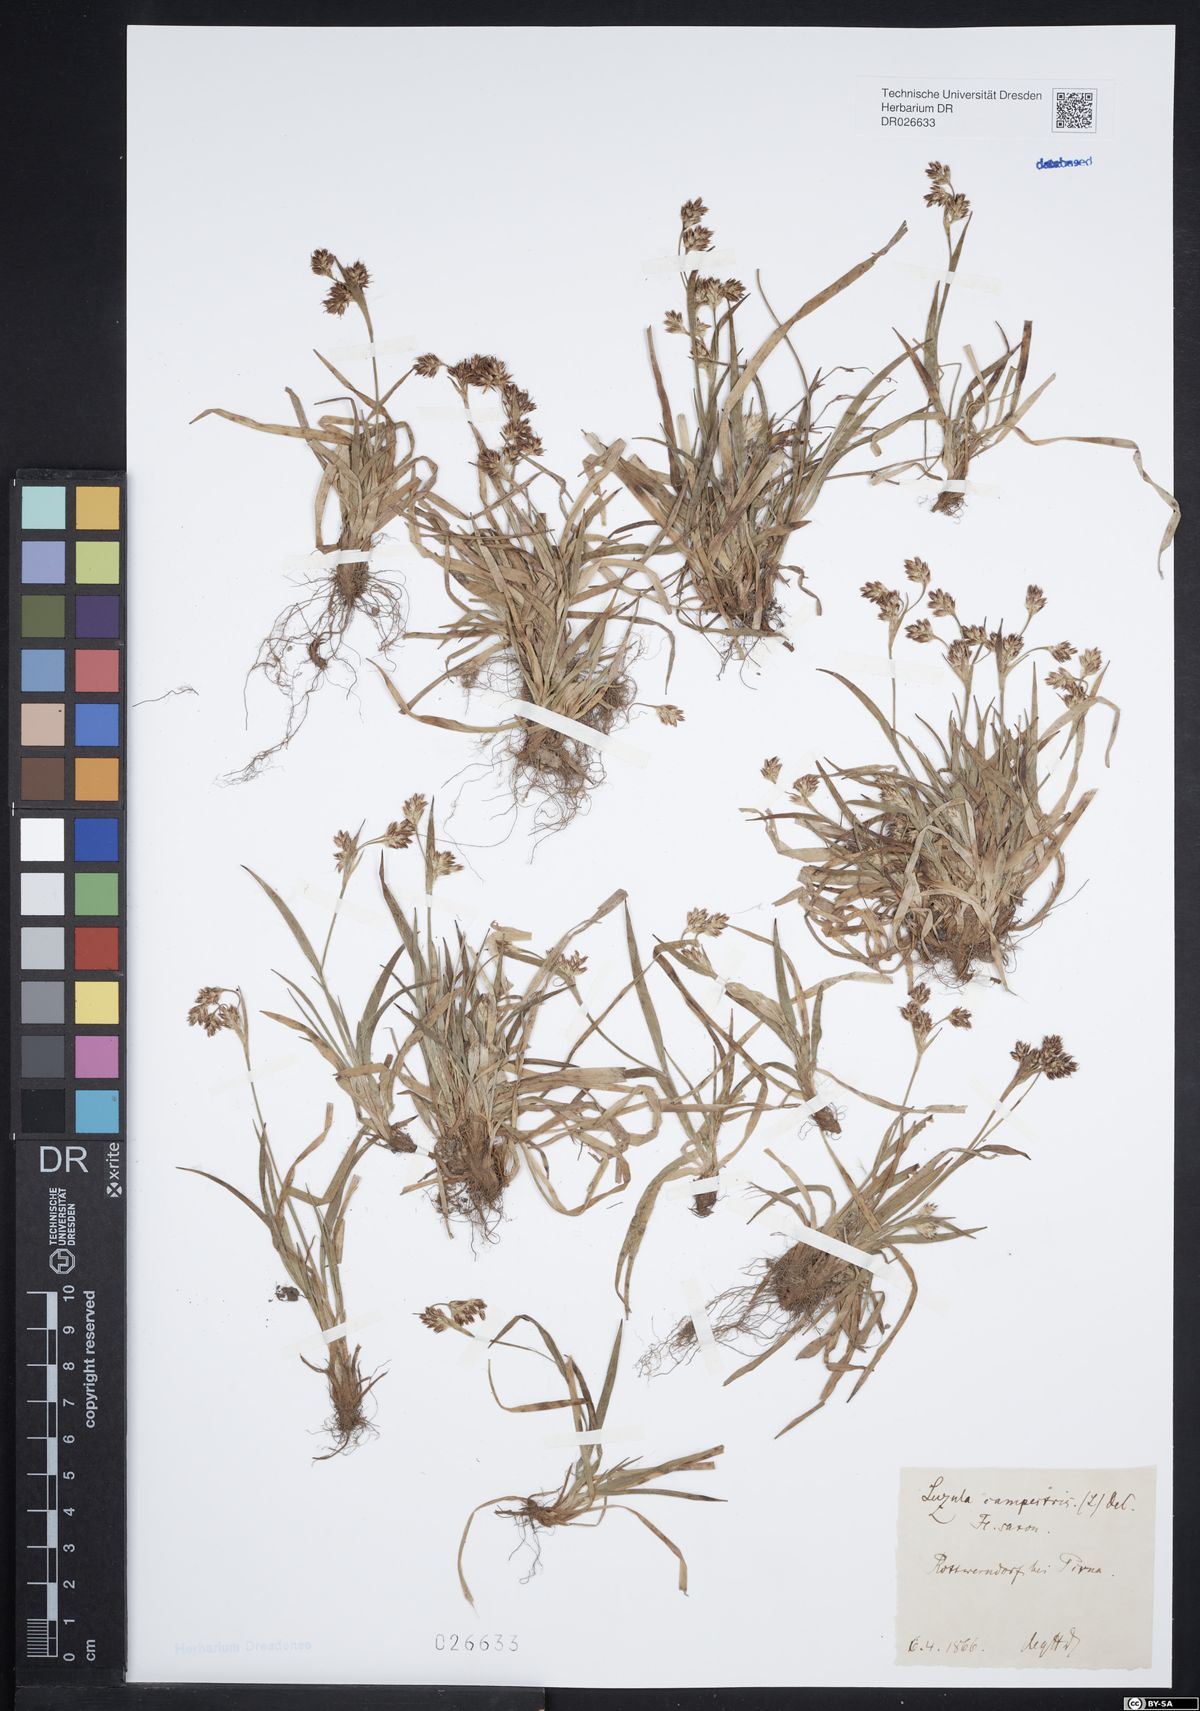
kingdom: Plantae
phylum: Tracheophyta
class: Liliopsida
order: Poales
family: Juncaceae
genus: Luzula
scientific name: Luzula campestris
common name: Field wood-rush
